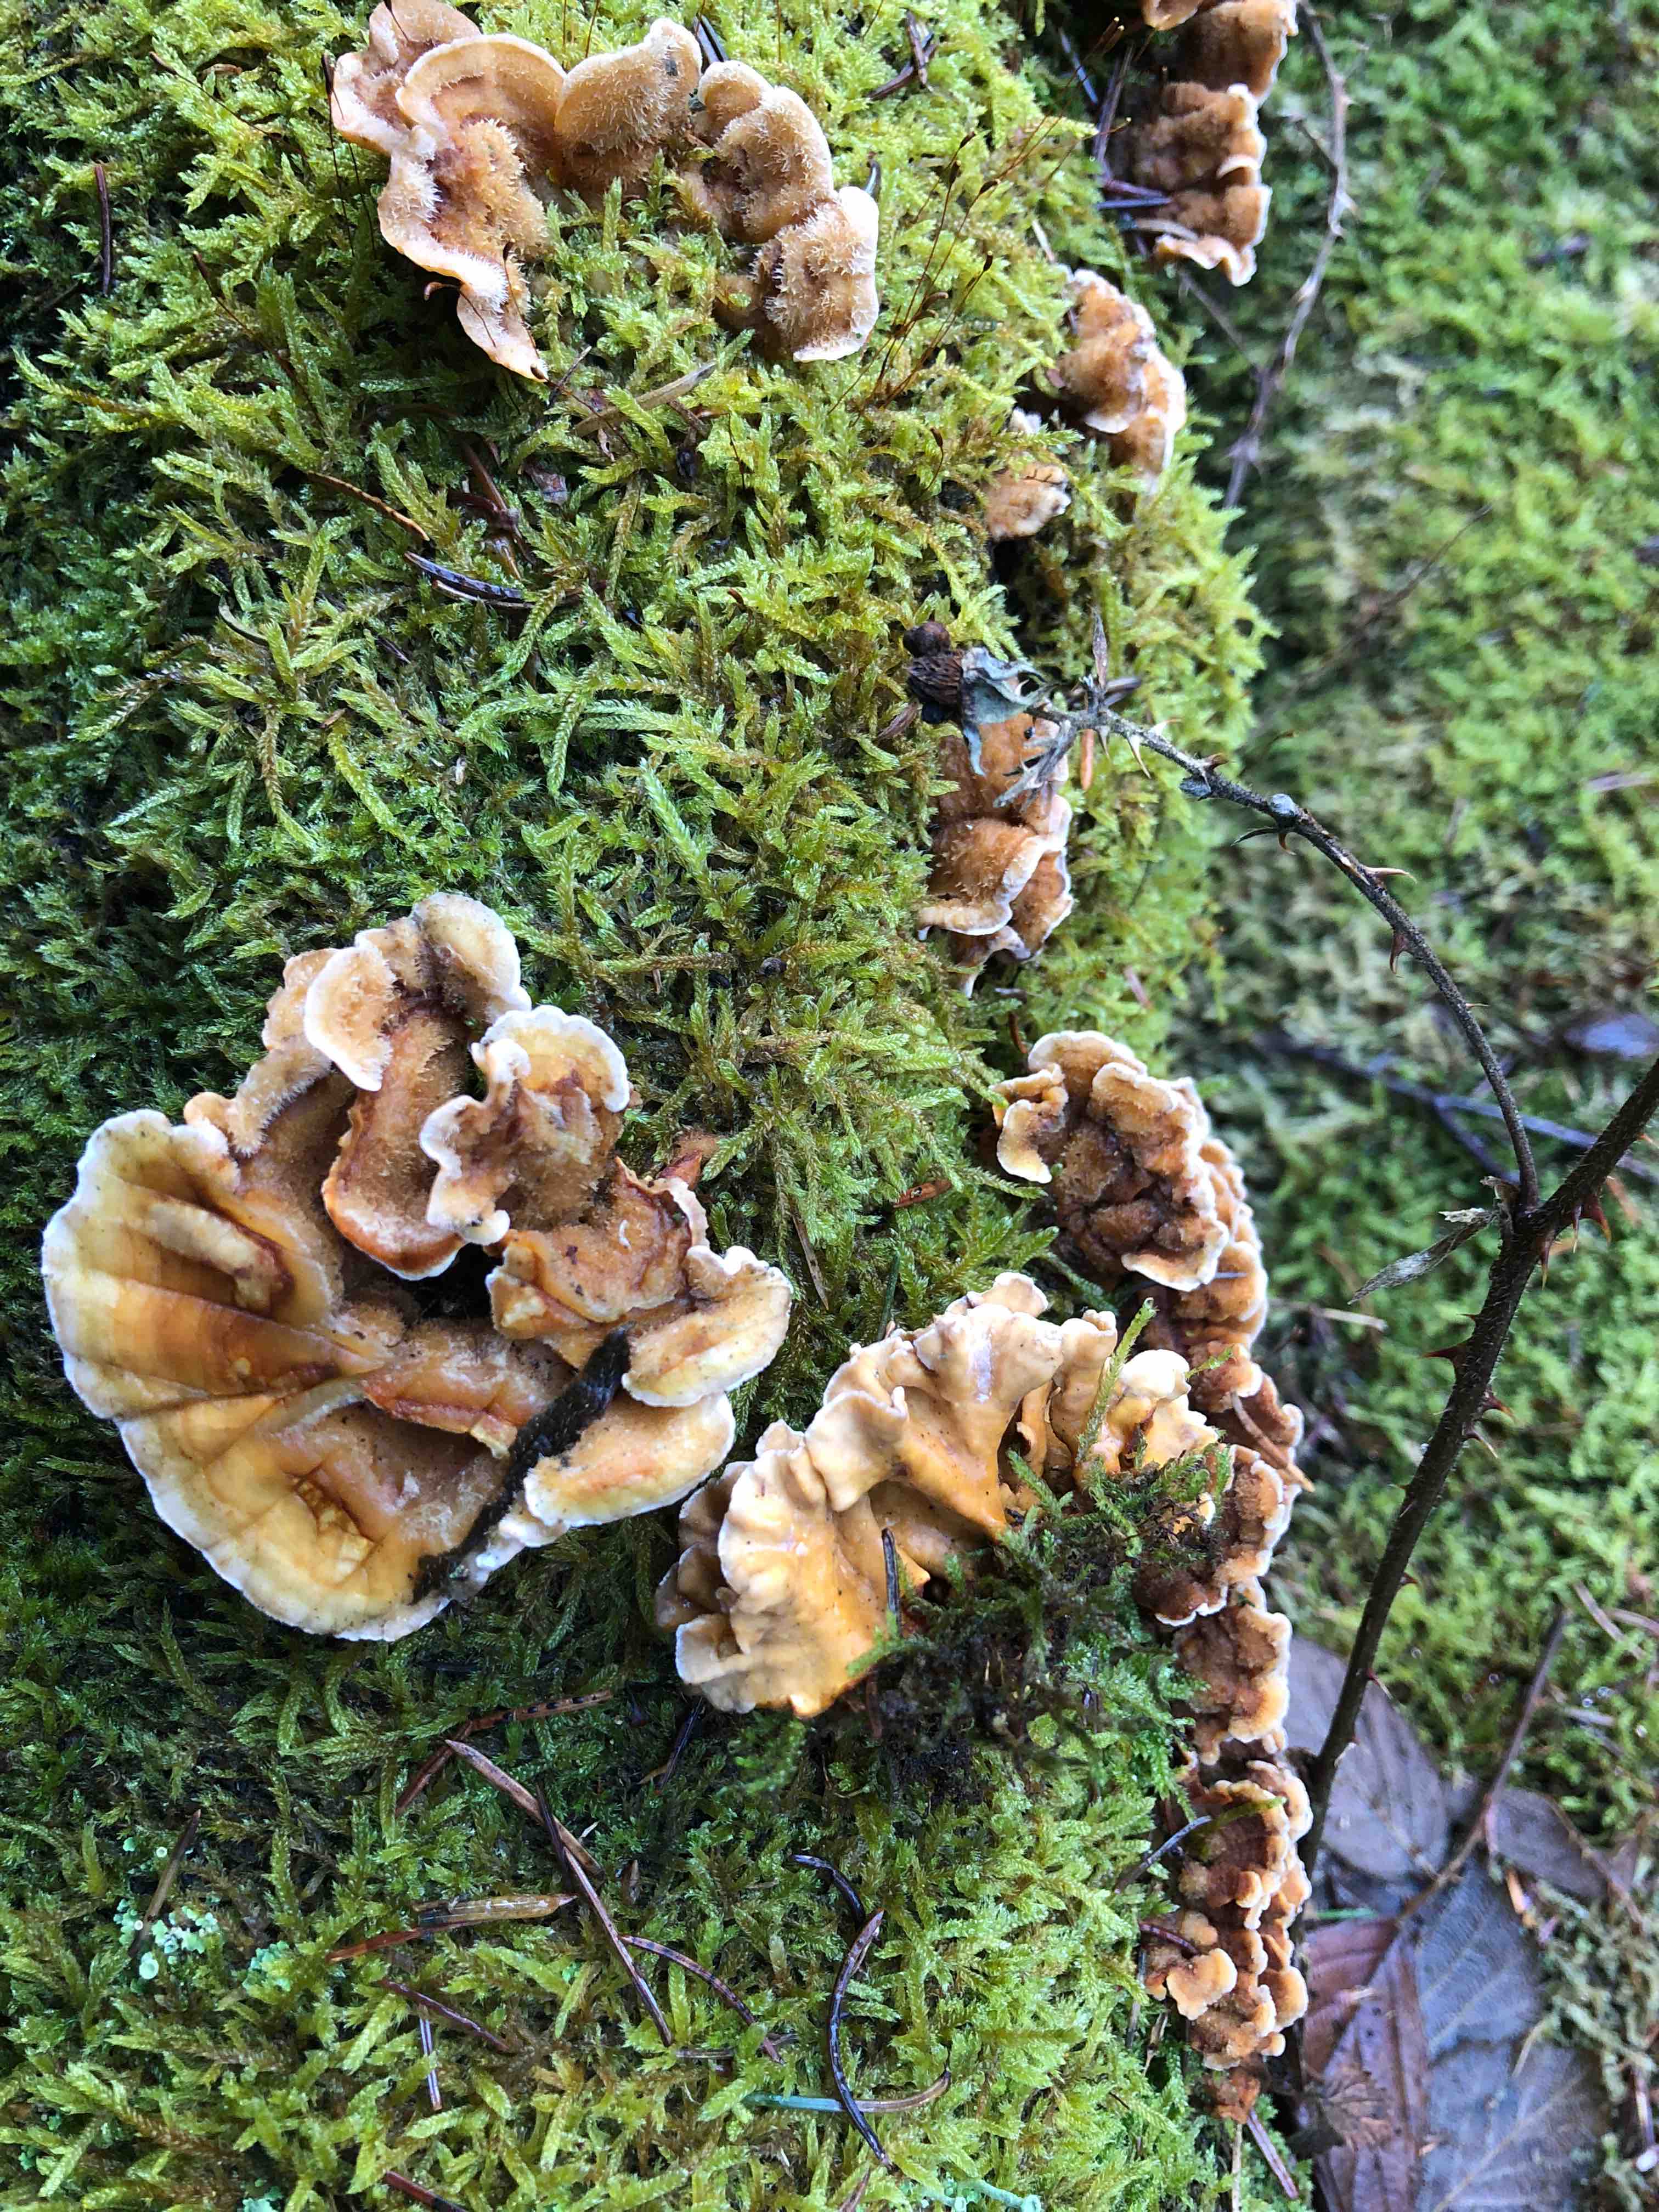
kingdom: Fungi
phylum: Basidiomycota
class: Agaricomycetes
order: Russulales
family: Stereaceae
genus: Stereum
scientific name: Stereum hirsutum
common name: håret lædersvamp
